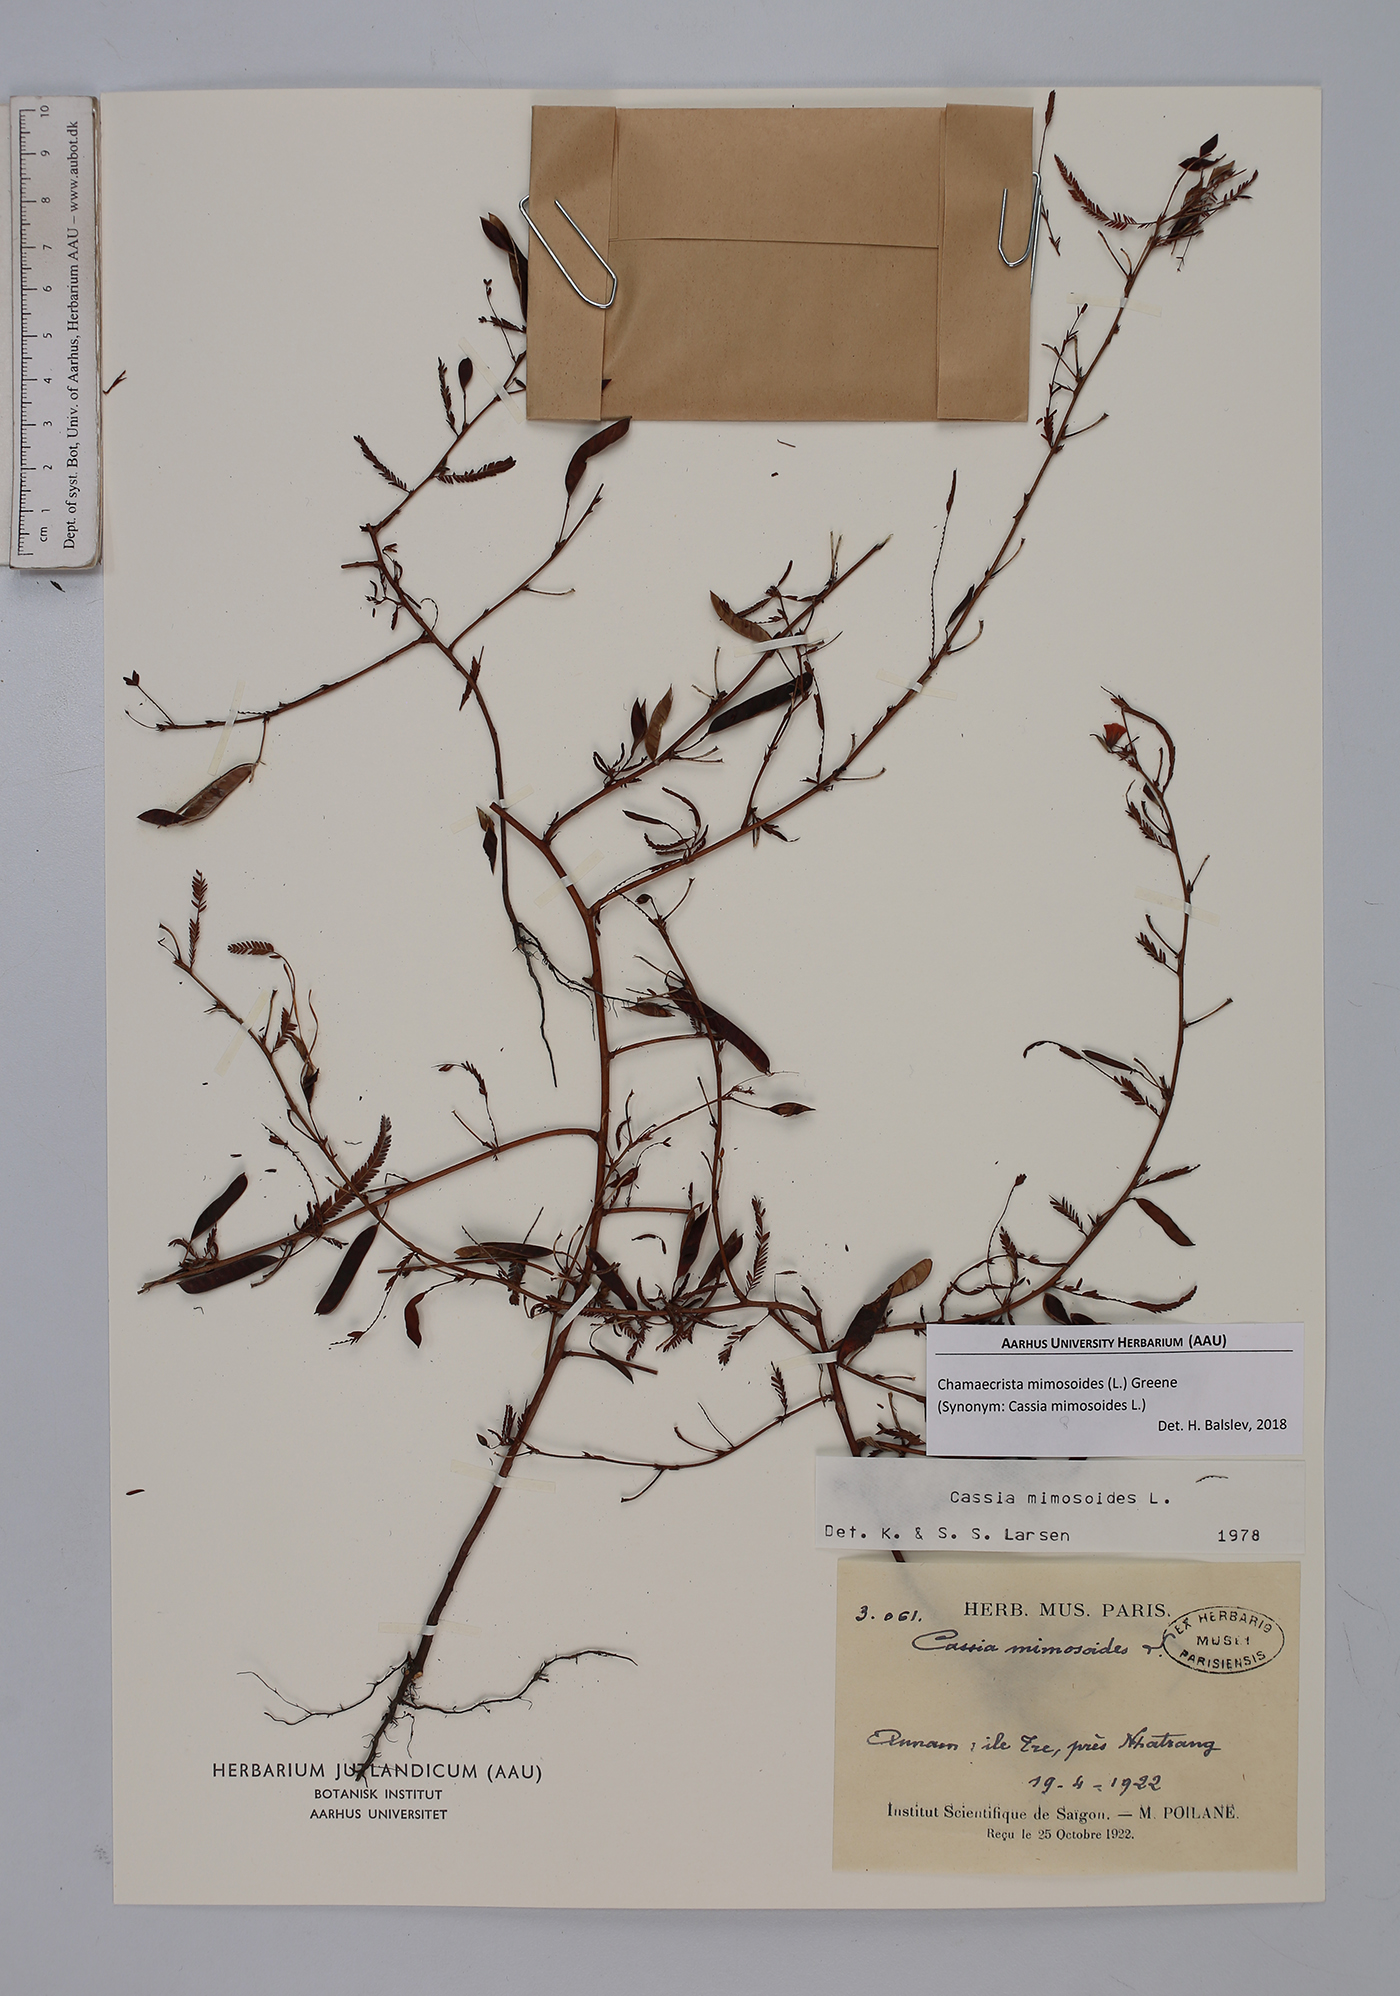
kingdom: Plantae
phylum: Tracheophyta
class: Magnoliopsida
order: Fabales
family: Fabaceae
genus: Chamaecrista
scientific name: Chamaecrista mimosoides
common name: Fish-bone cassia
